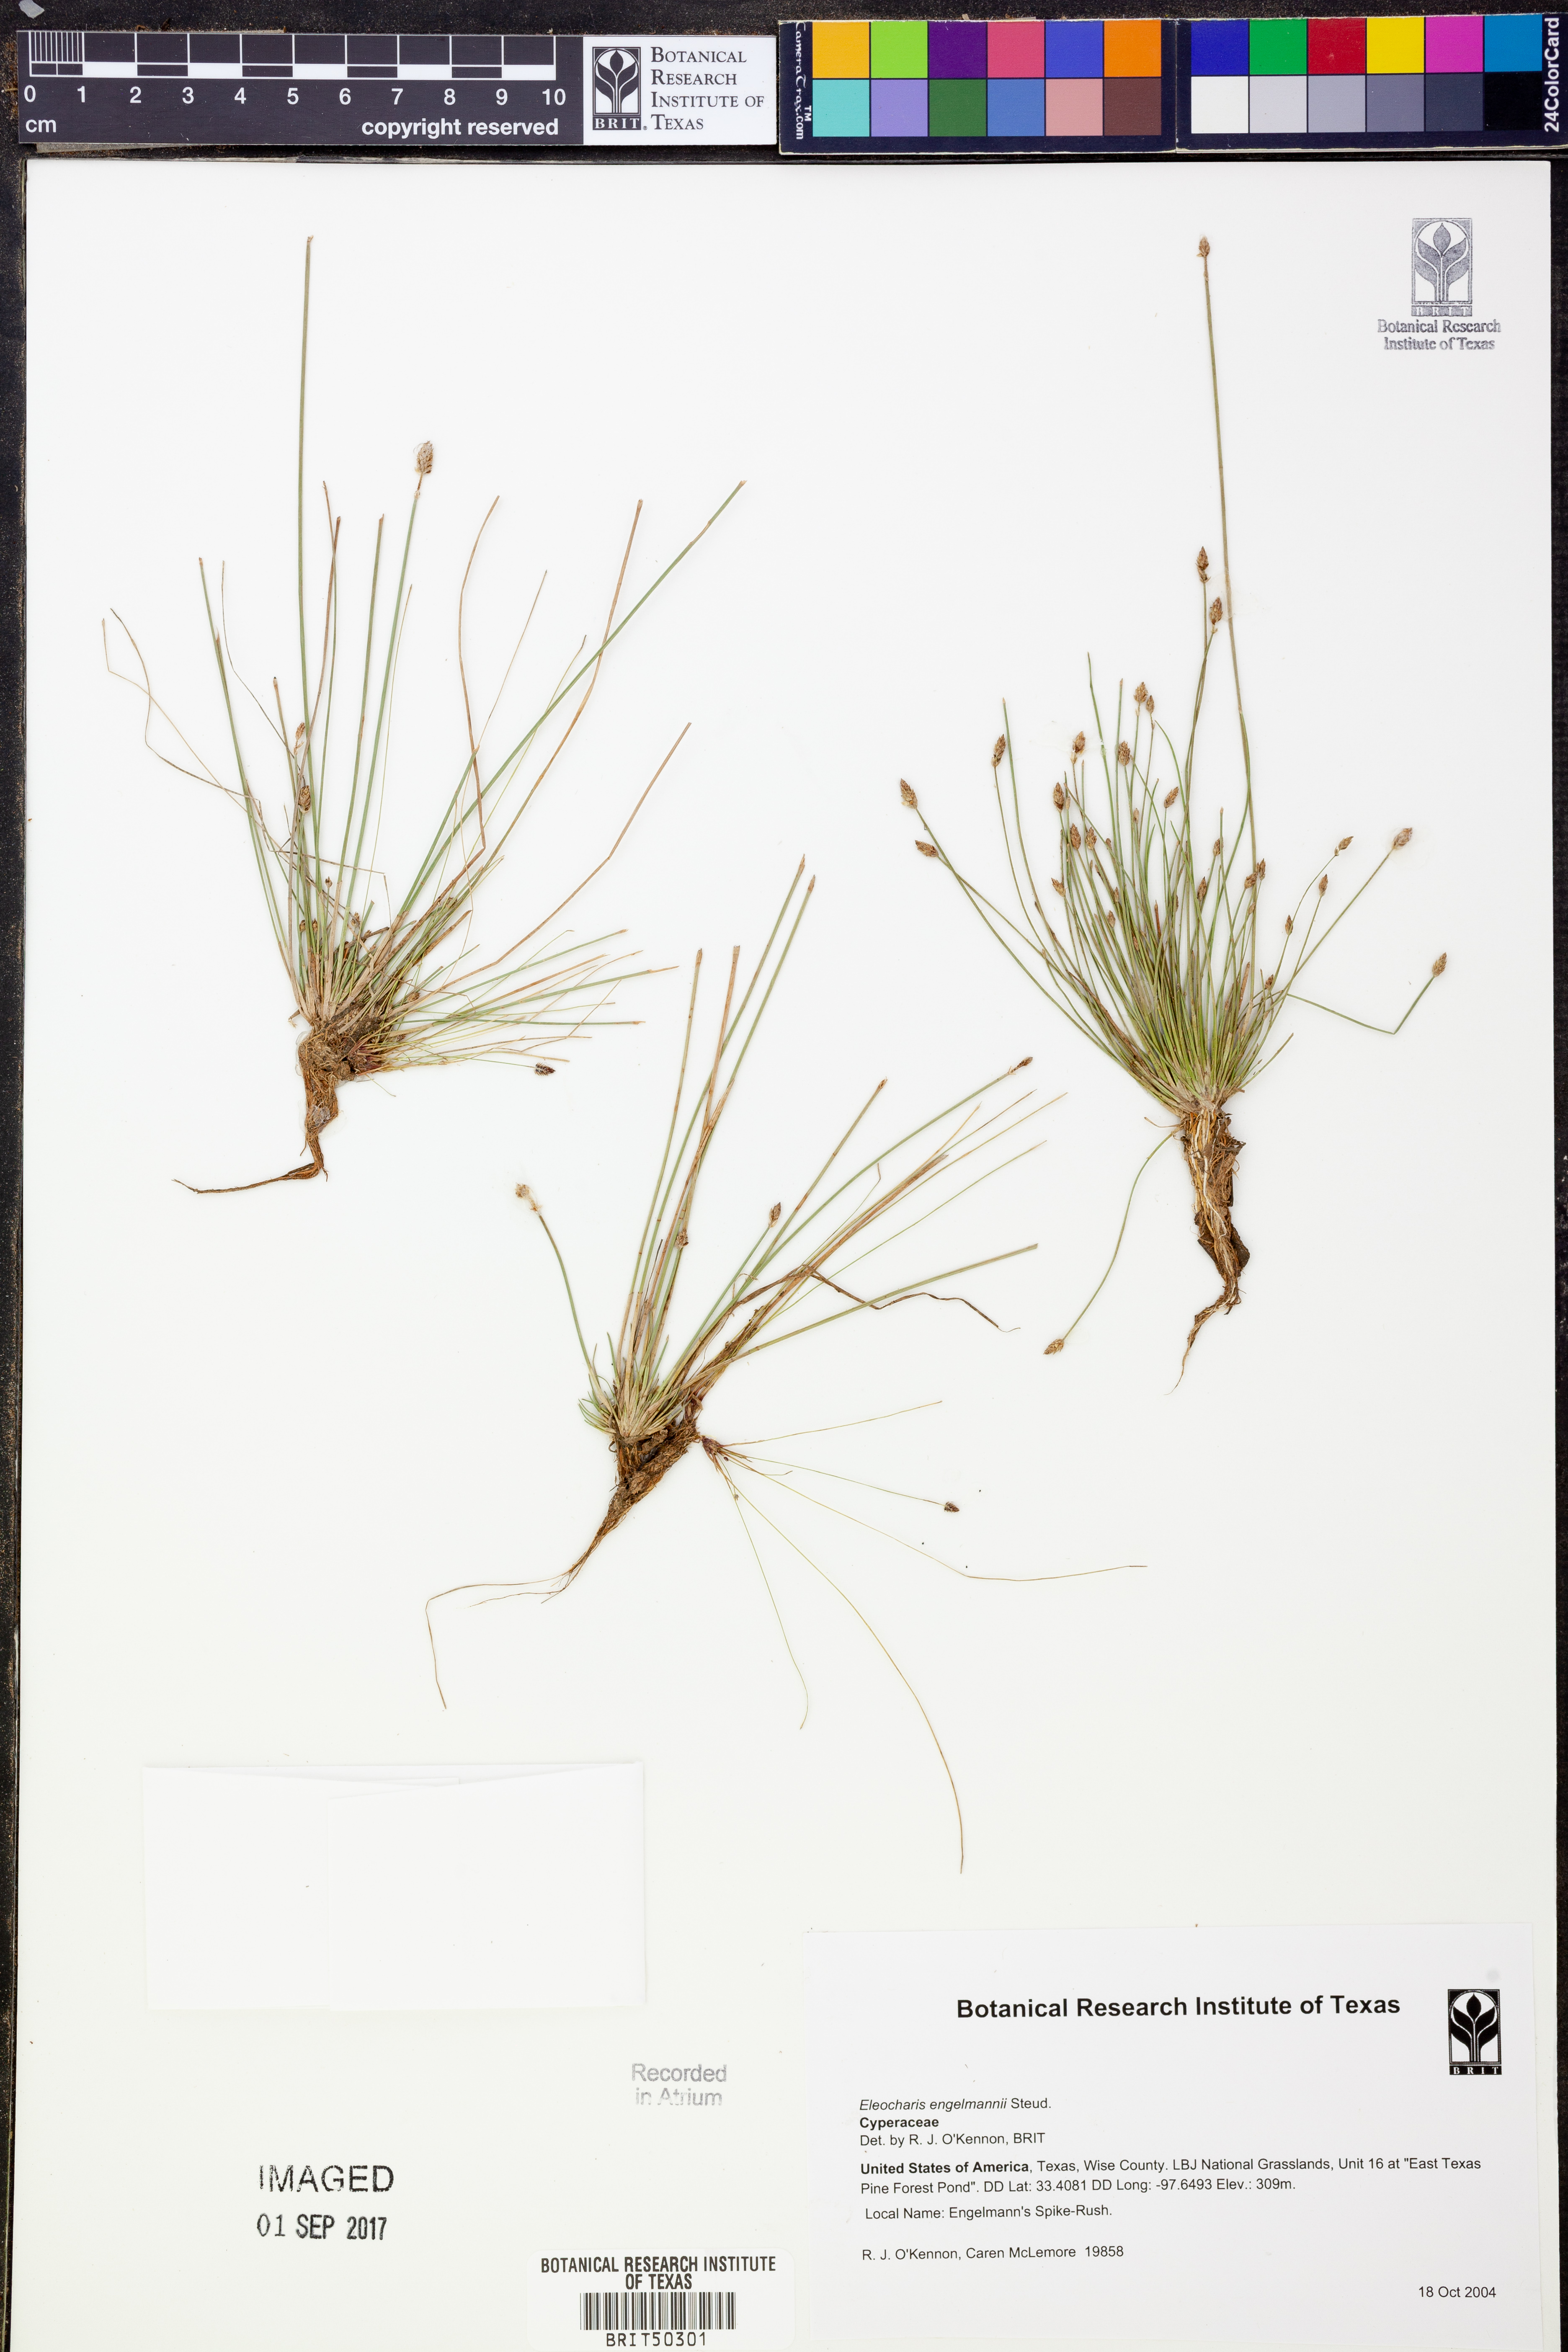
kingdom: Plantae
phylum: Tracheophyta
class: Liliopsida
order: Poales
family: Cyperaceae
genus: Eleocharis
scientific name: Eleocharis engelmannii
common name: Engelmann's spikerush
